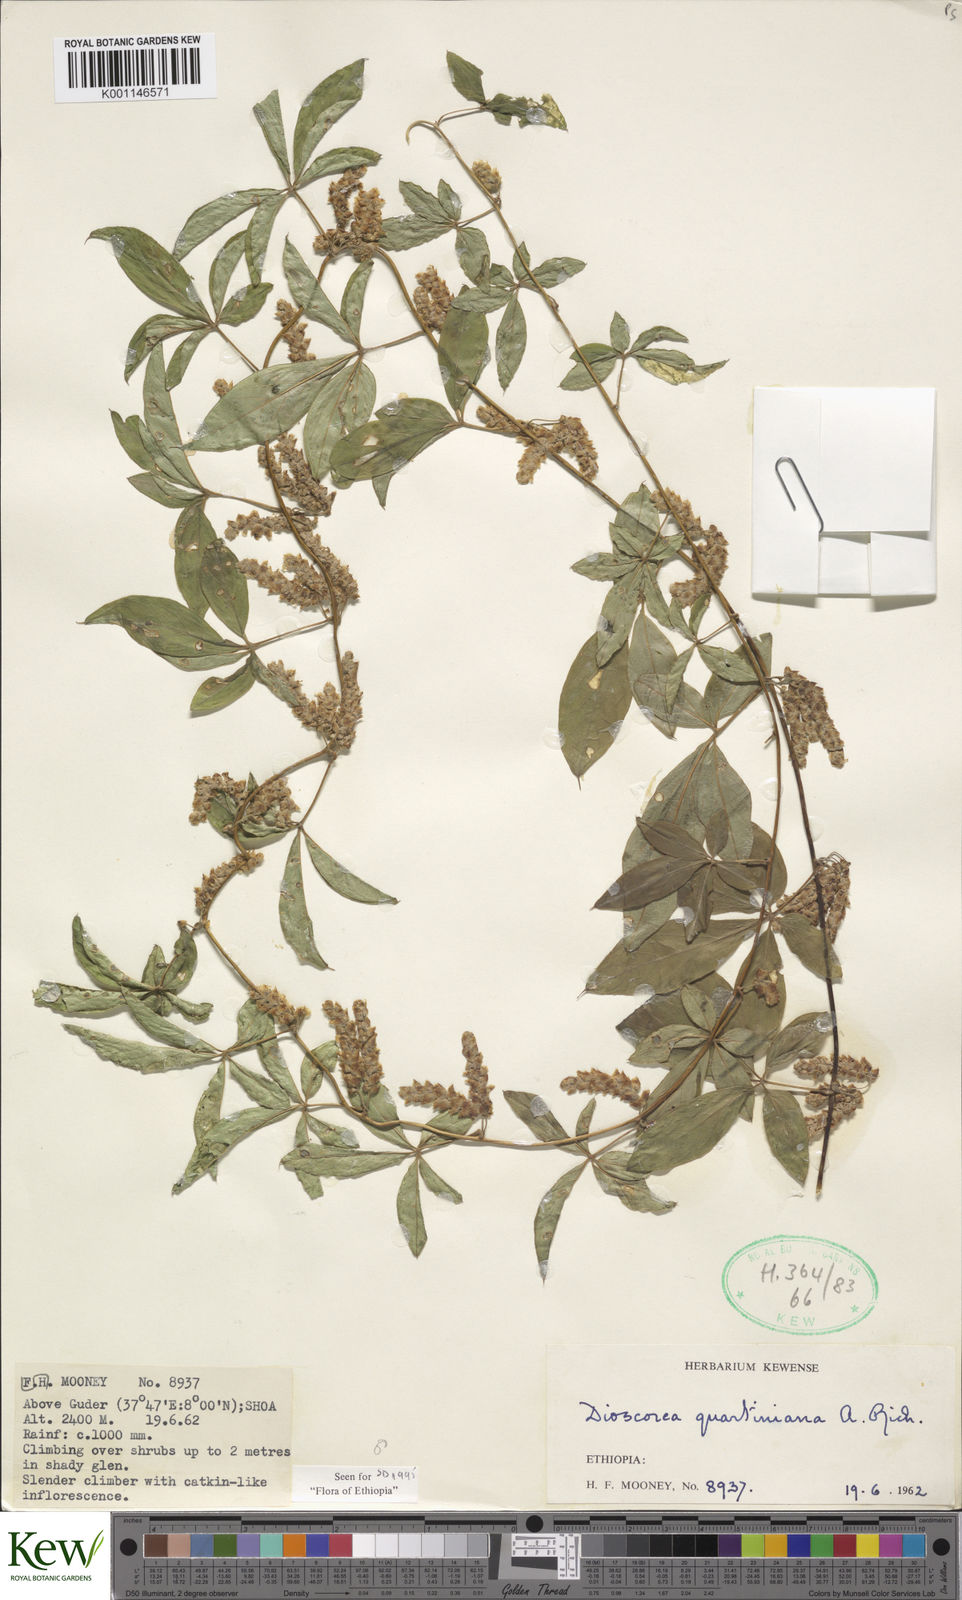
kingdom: Plantae
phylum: Tracheophyta
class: Liliopsida
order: Dioscoreales
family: Dioscoreaceae
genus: Dioscorea
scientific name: Dioscorea quartiniana
